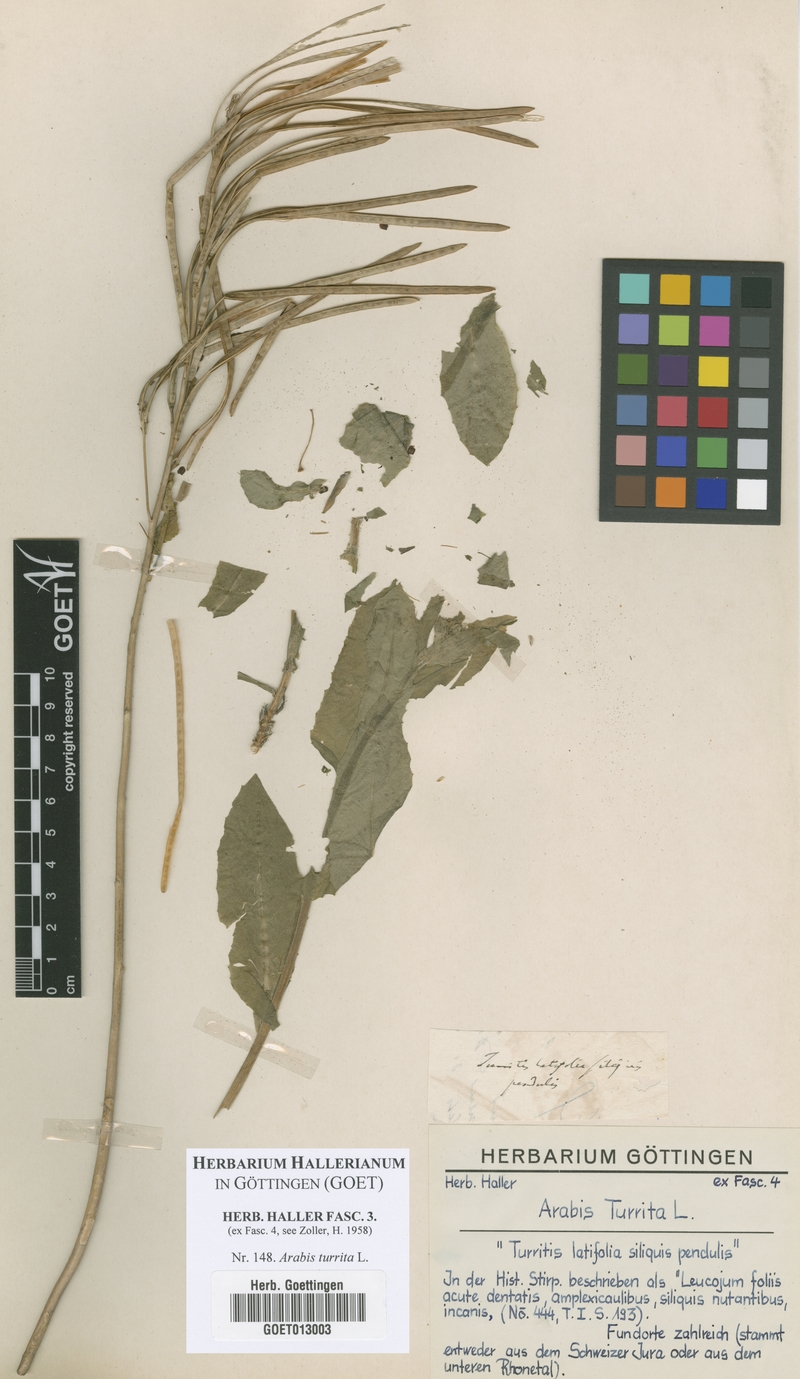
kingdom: Plantae
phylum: Tracheophyta
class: Magnoliopsida
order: Brassicales
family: Brassicaceae
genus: Pseudoturritis
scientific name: Pseudoturritis turrita
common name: Tower cress
